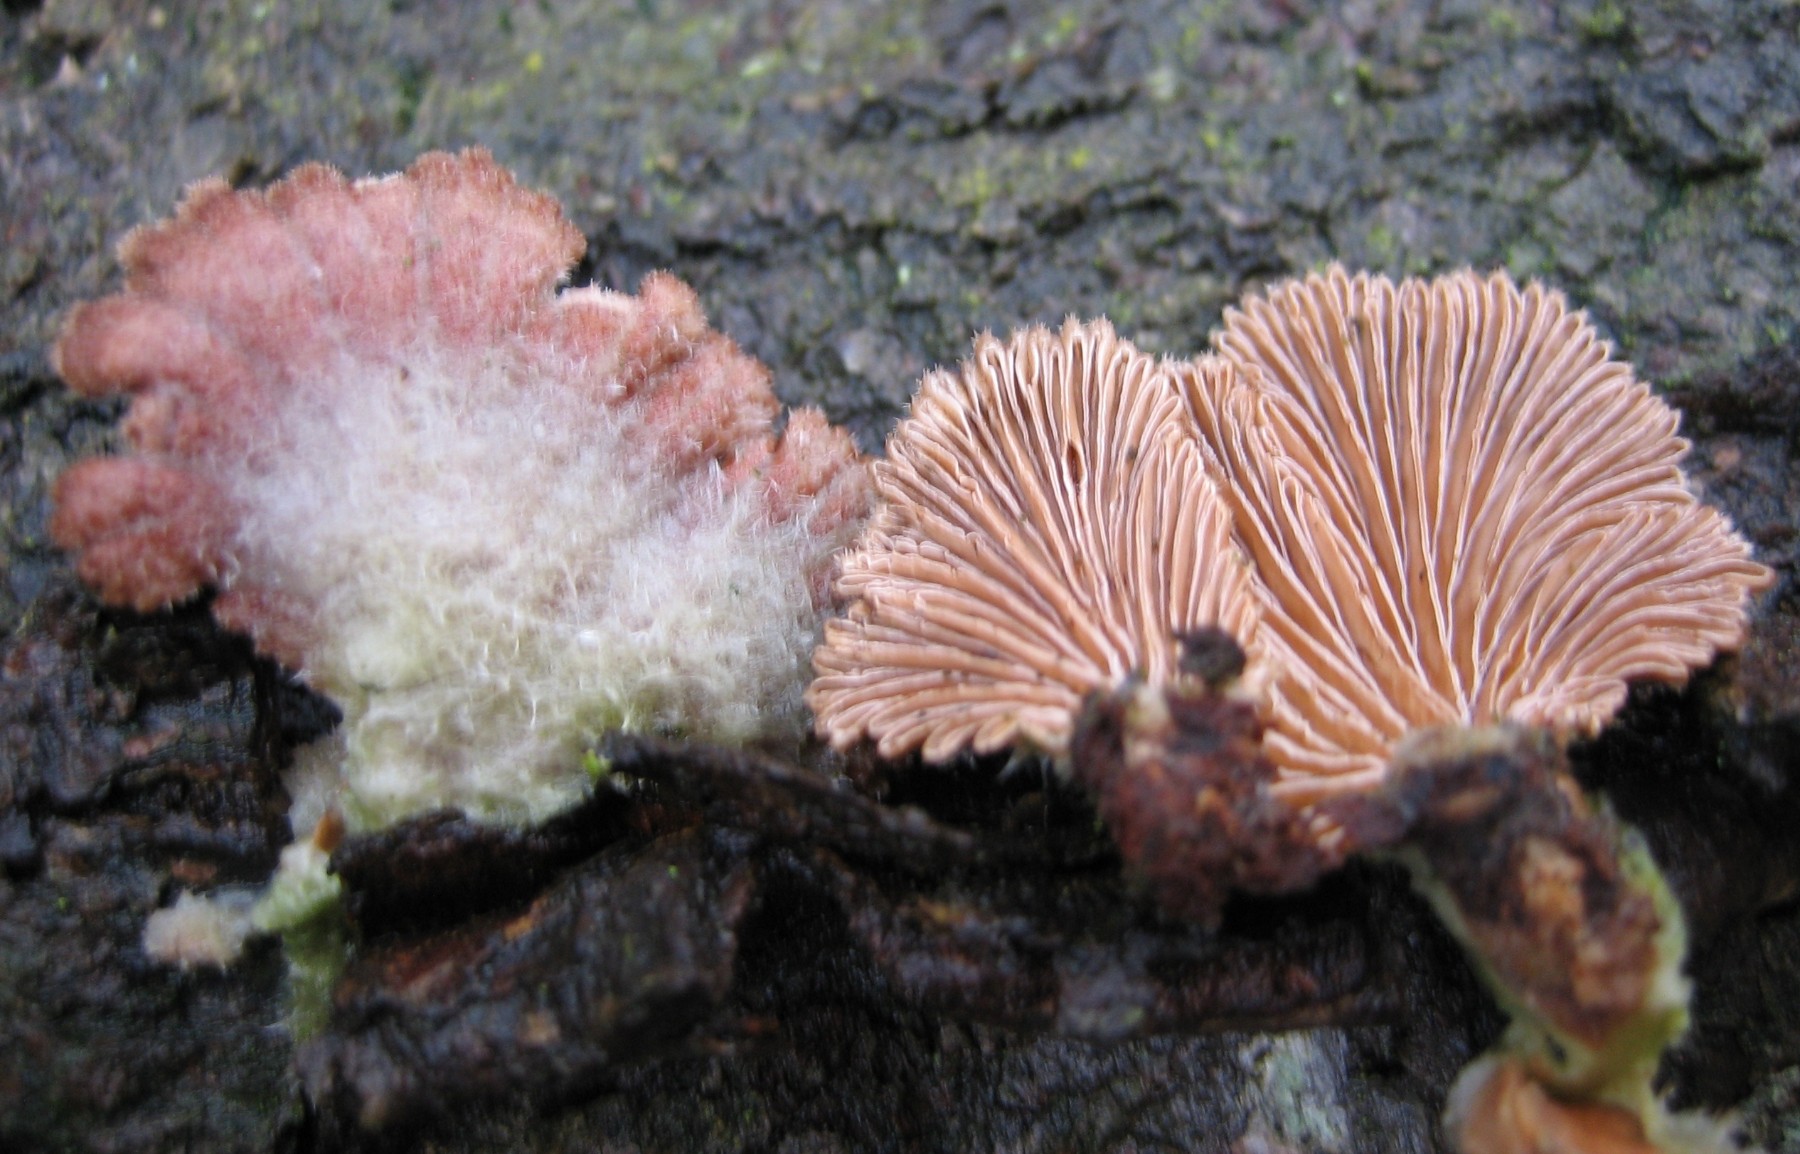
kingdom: Fungi
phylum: Basidiomycota
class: Agaricomycetes
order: Agaricales
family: Schizophyllaceae
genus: Schizophyllum
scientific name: Schizophyllum commune
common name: kløvblad
